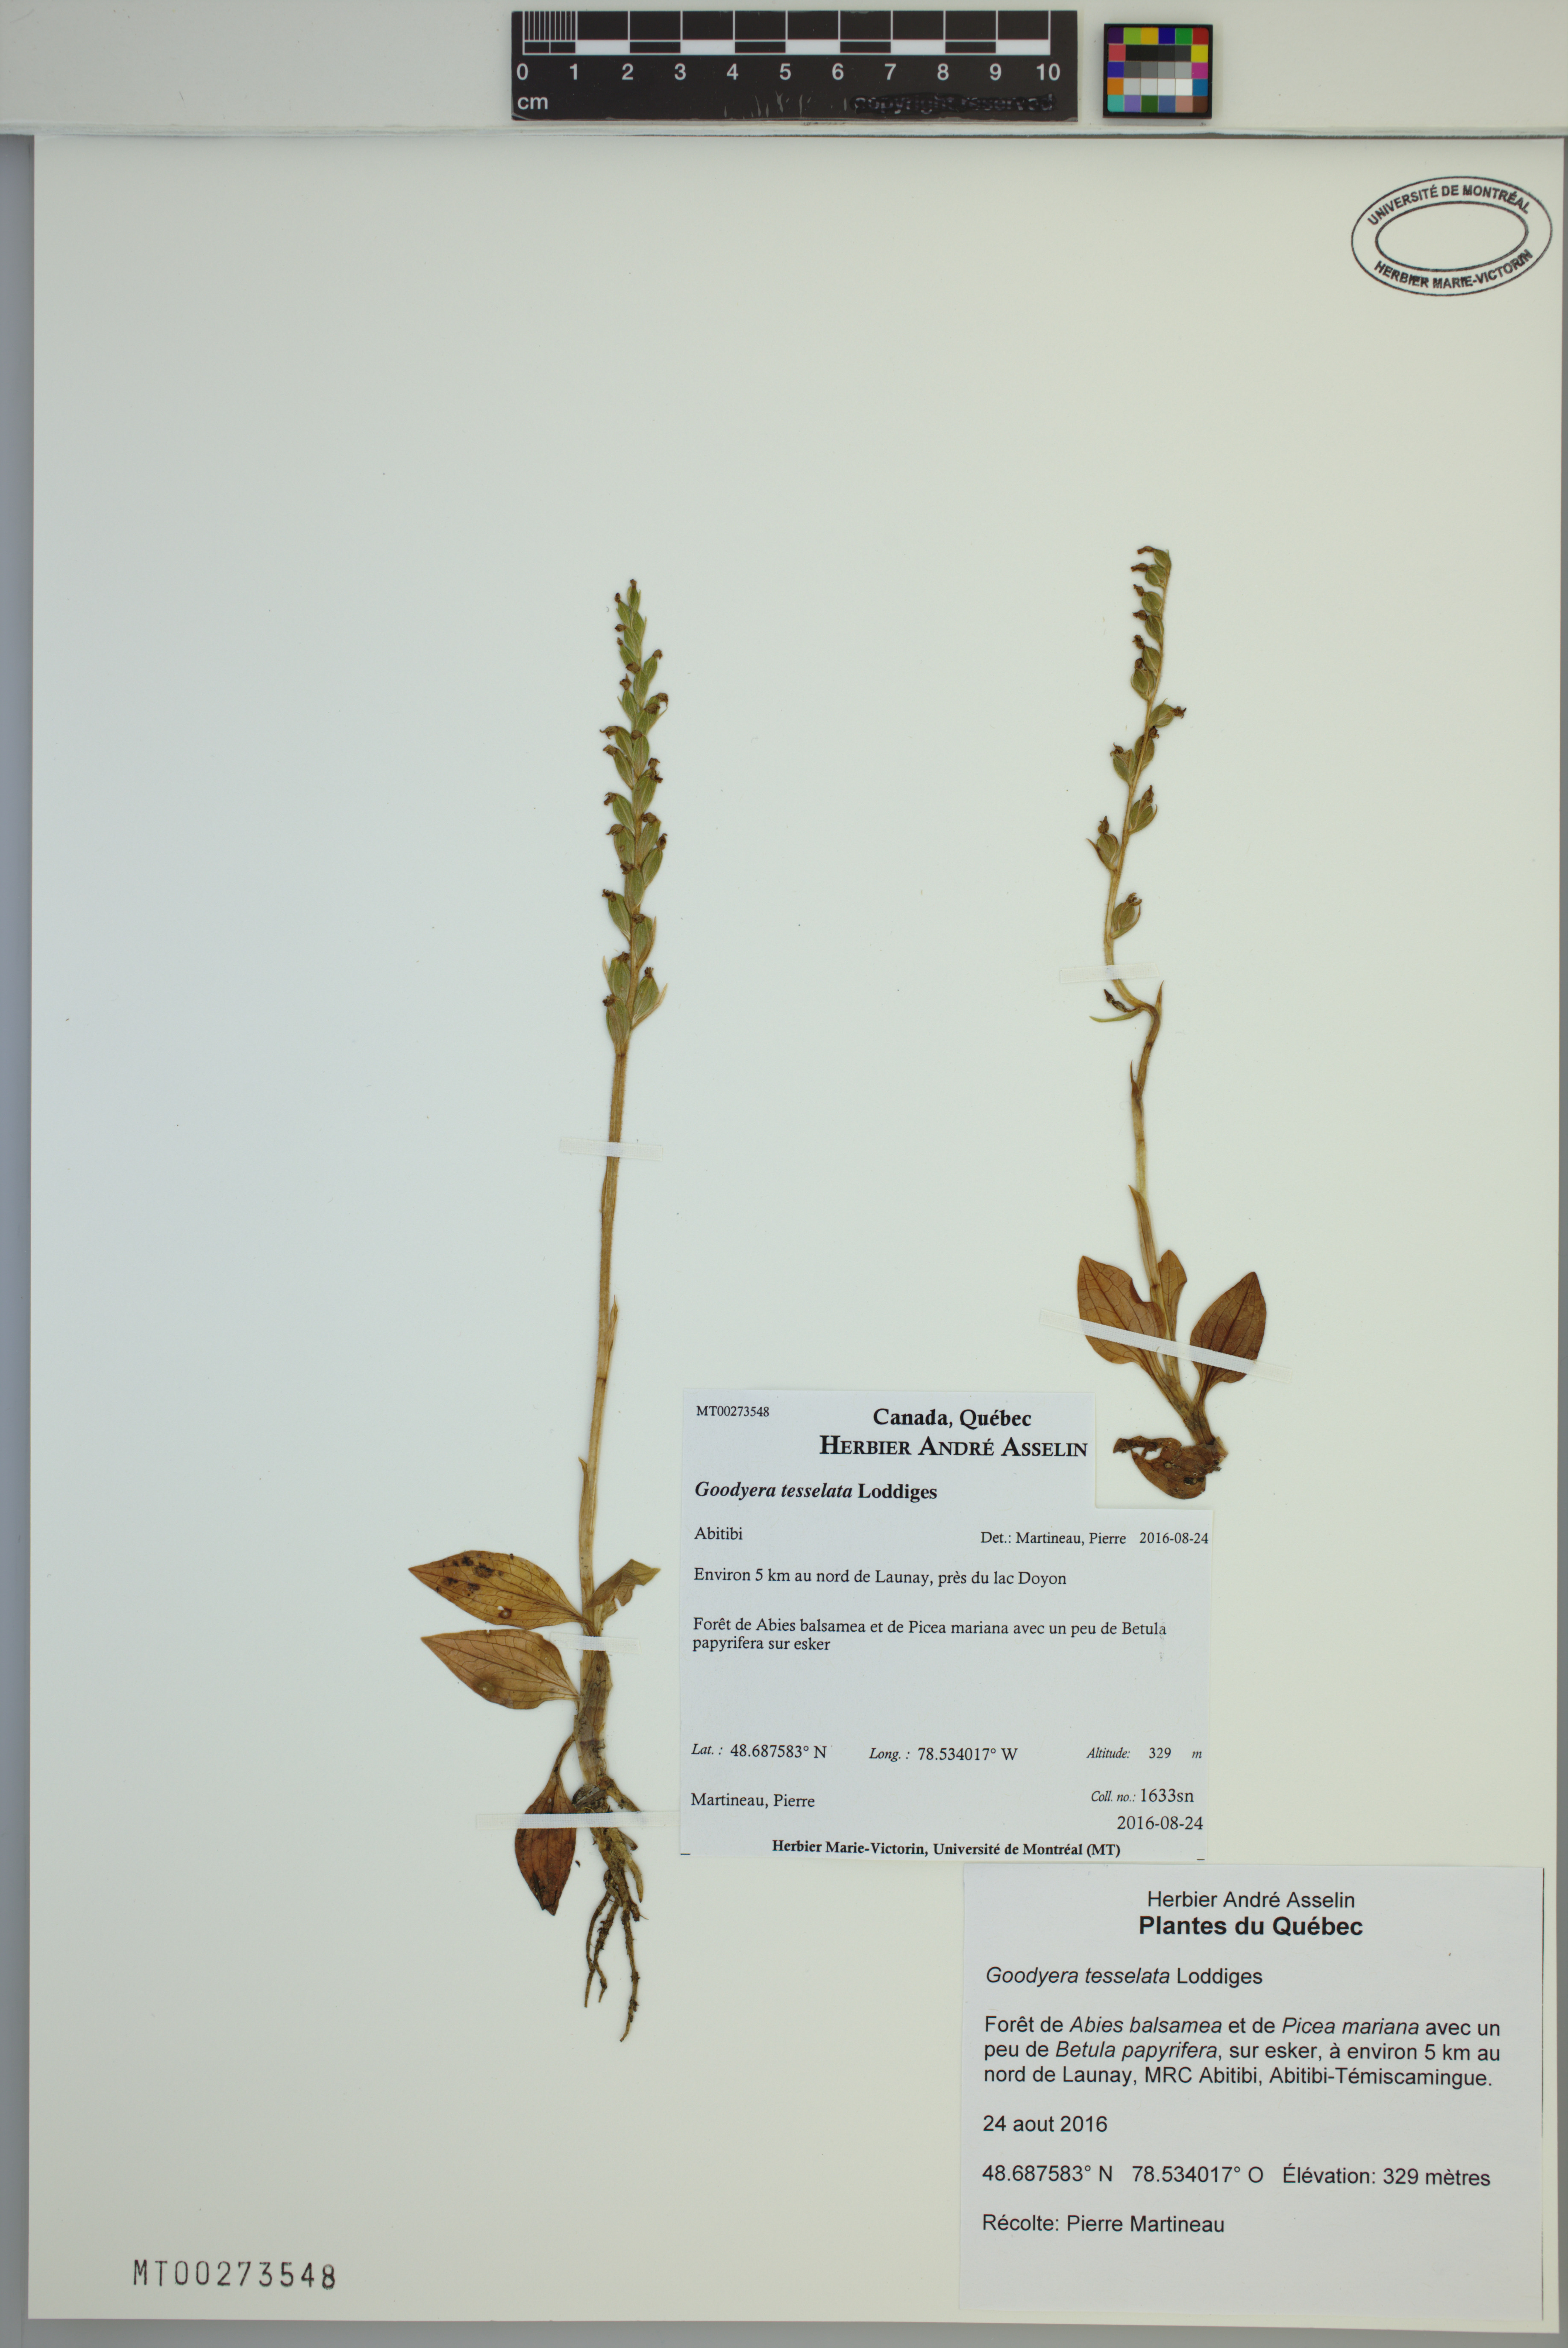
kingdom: Plantae
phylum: Tracheophyta
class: Liliopsida
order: Asparagales
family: Orchidaceae
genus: Goodyera
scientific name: Goodyera tesselata
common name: Checkered rattlesnake-plantain
